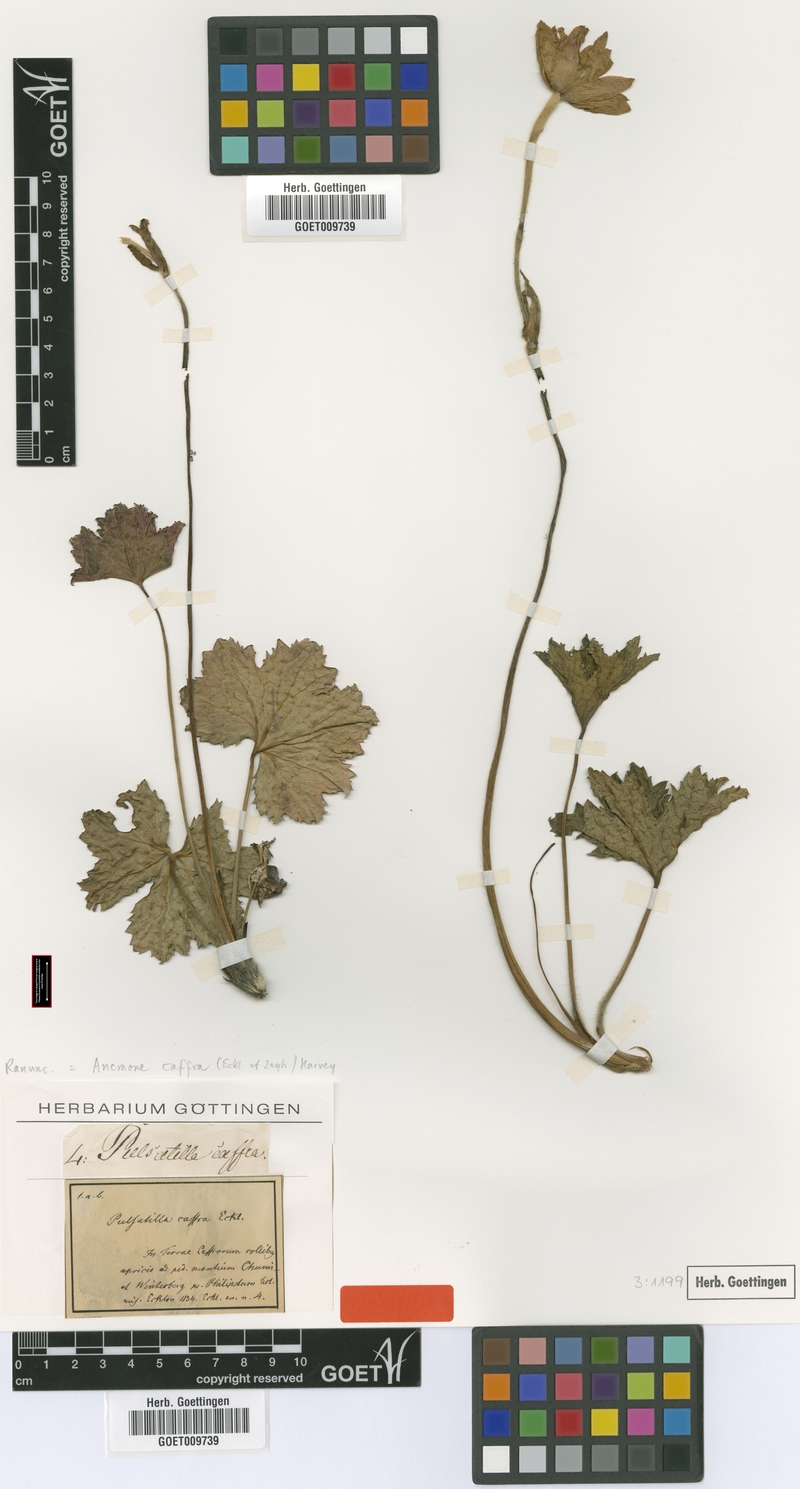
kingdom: Plantae
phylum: Tracheophyta
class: Magnoliopsida
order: Ranunculales
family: Ranunculaceae
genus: Knowltonia
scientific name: Knowltonia caffra
